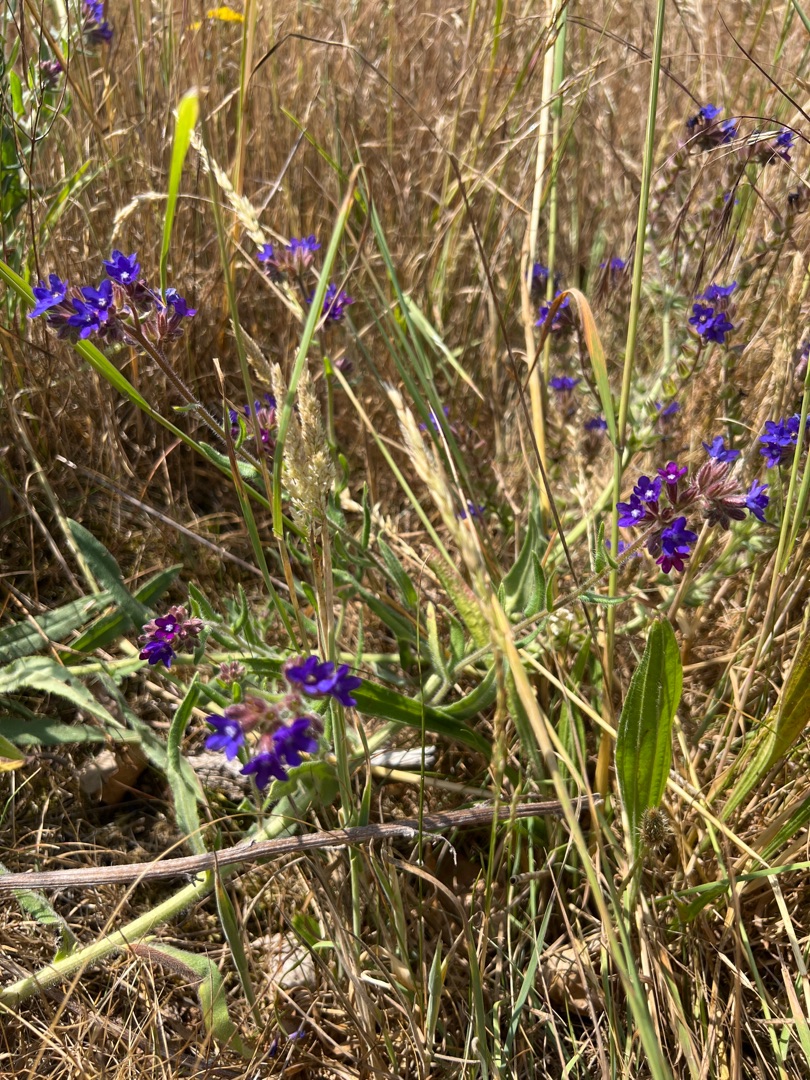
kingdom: Plantae
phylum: Tracheophyta
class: Magnoliopsida
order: Boraginales
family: Boraginaceae
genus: Anchusa
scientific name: Anchusa officinalis
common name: Læge-oksetunge
